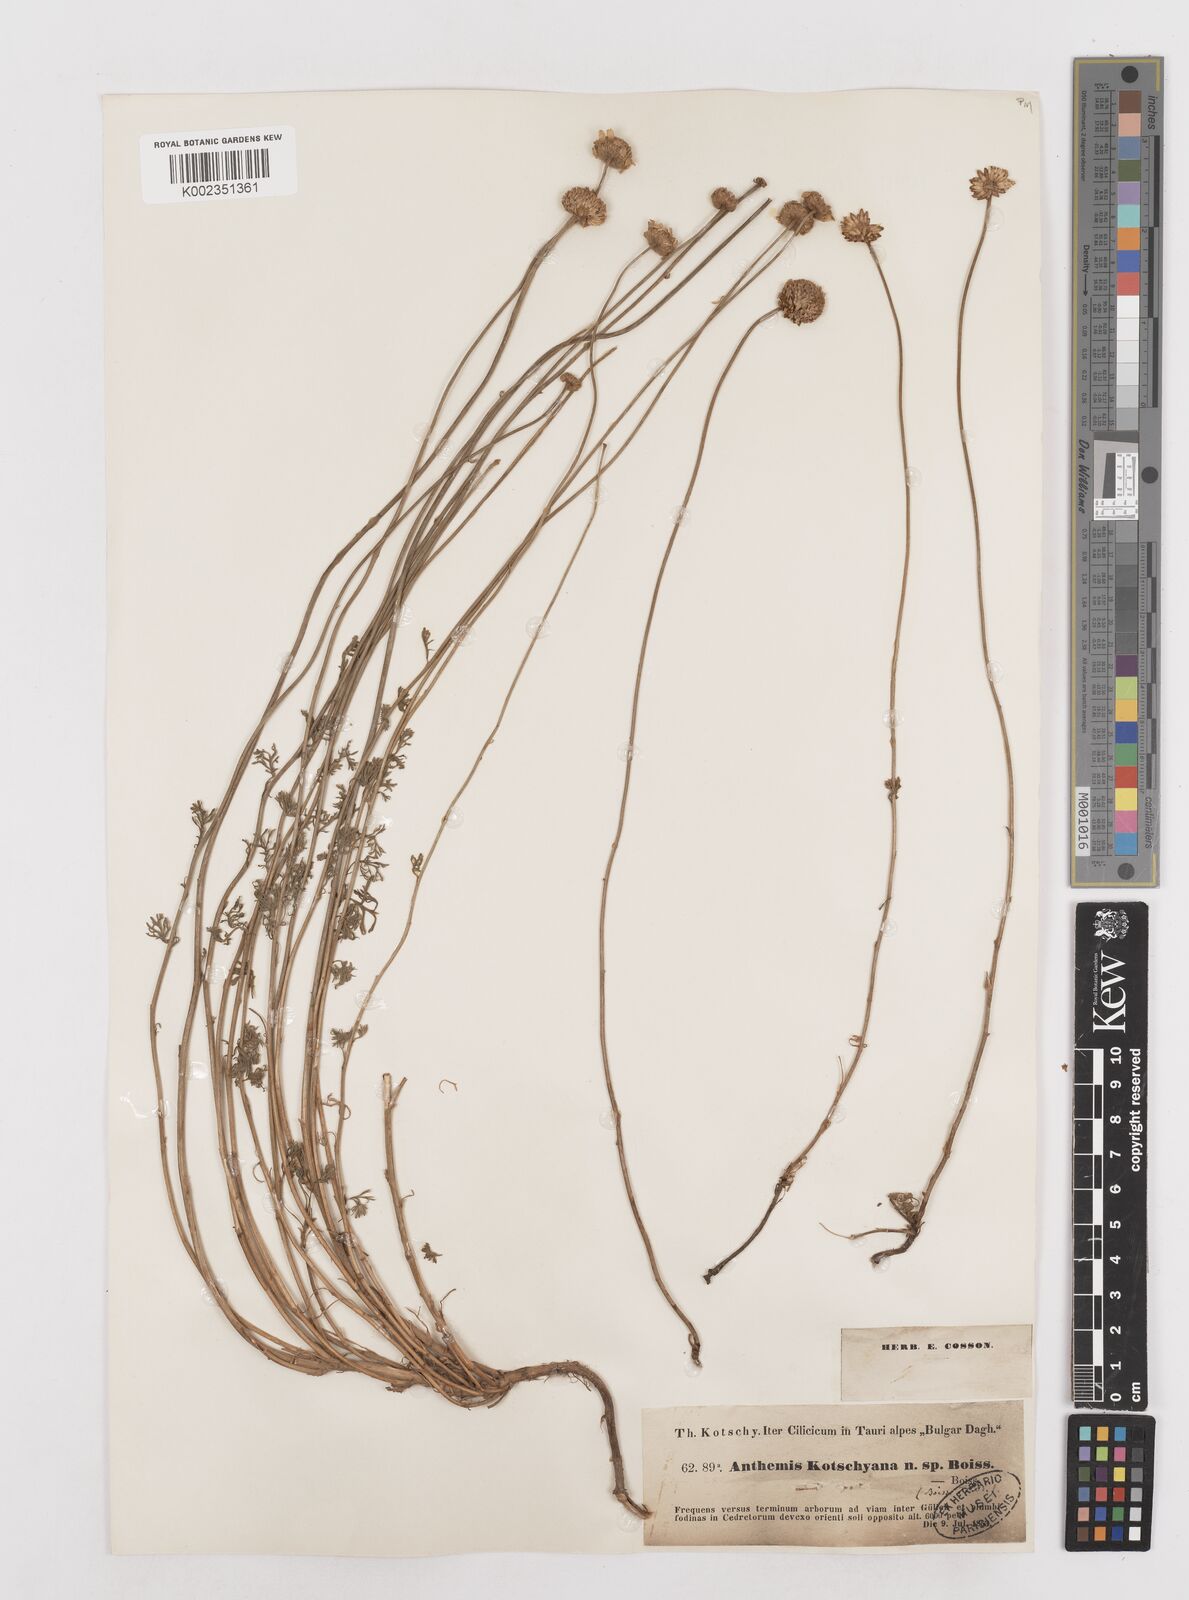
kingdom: Plantae
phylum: Tracheophyta
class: Magnoliopsida
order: Asterales
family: Asteraceae
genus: Anthemis
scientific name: Anthemis kotschyana
